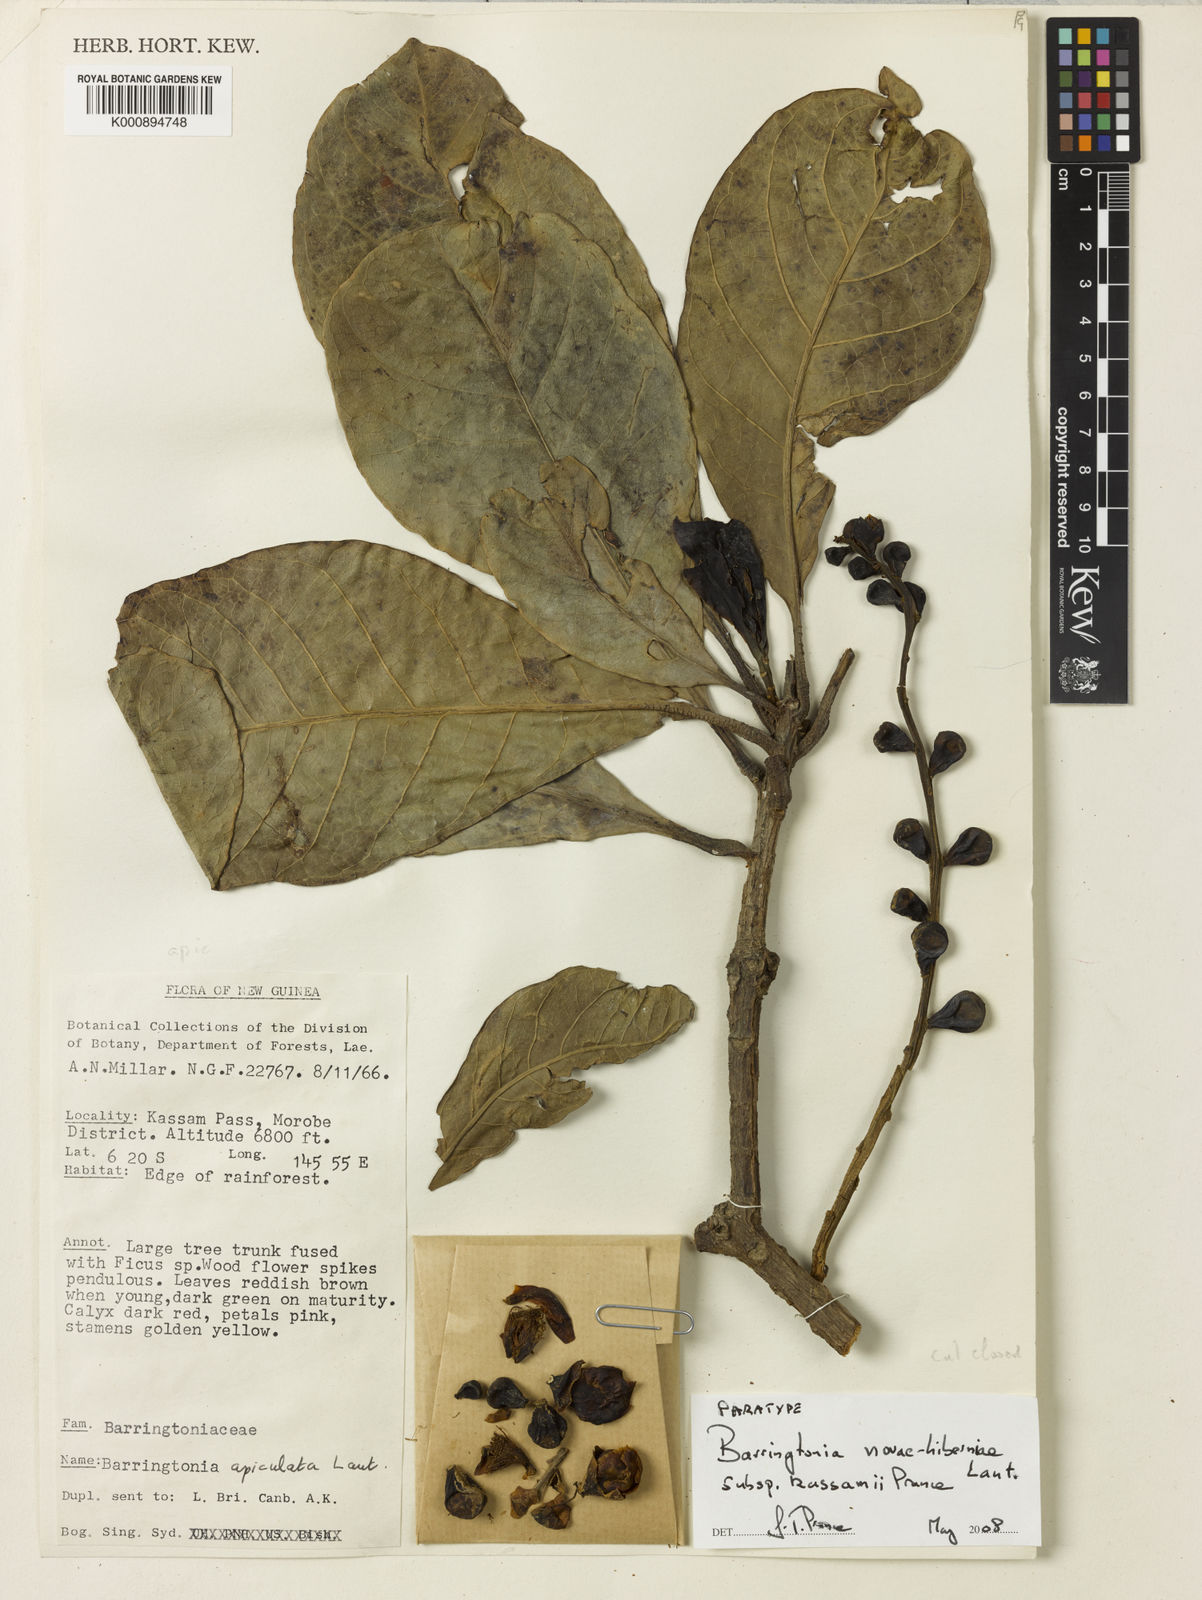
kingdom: Plantae
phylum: Tracheophyta
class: Magnoliopsida
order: Ericales
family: Lecythidaceae
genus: Barringtonia
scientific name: Barringtonia novae-hiberniae
